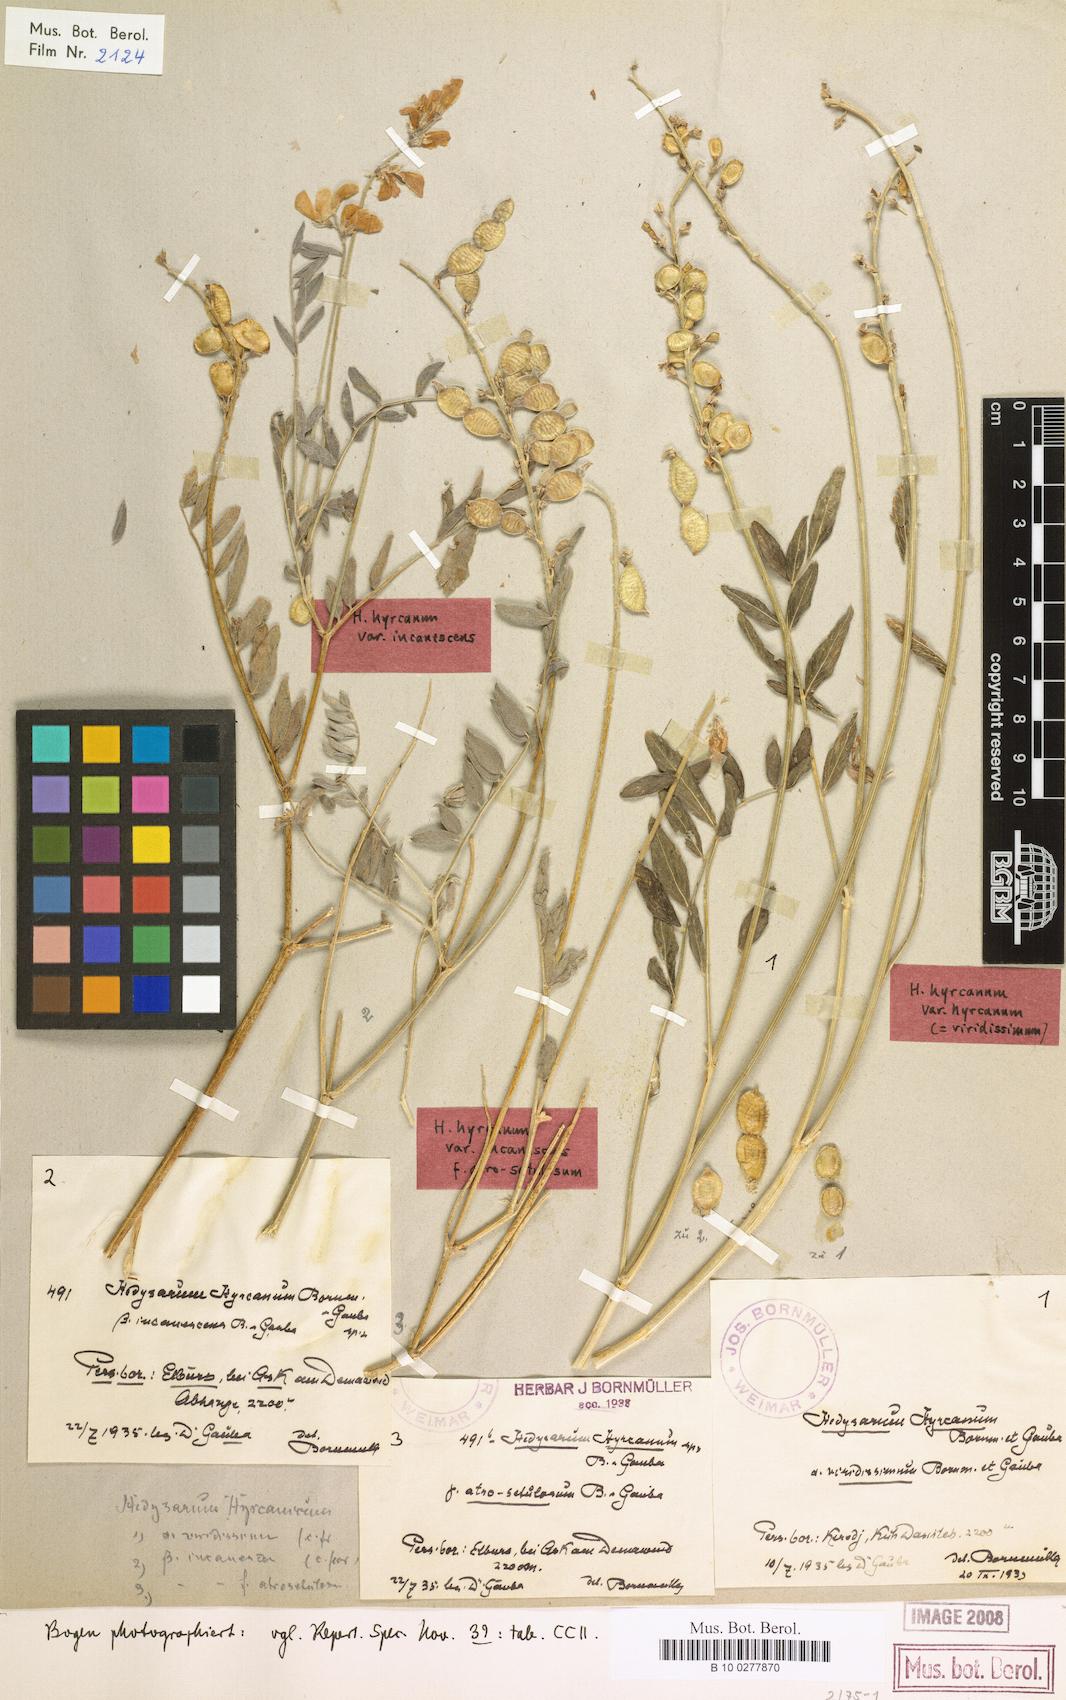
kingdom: Plantae
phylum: Tracheophyta
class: Magnoliopsida
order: Fabales
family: Fabaceae
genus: Hedysarum
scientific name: Hedysarum hyrcanum
